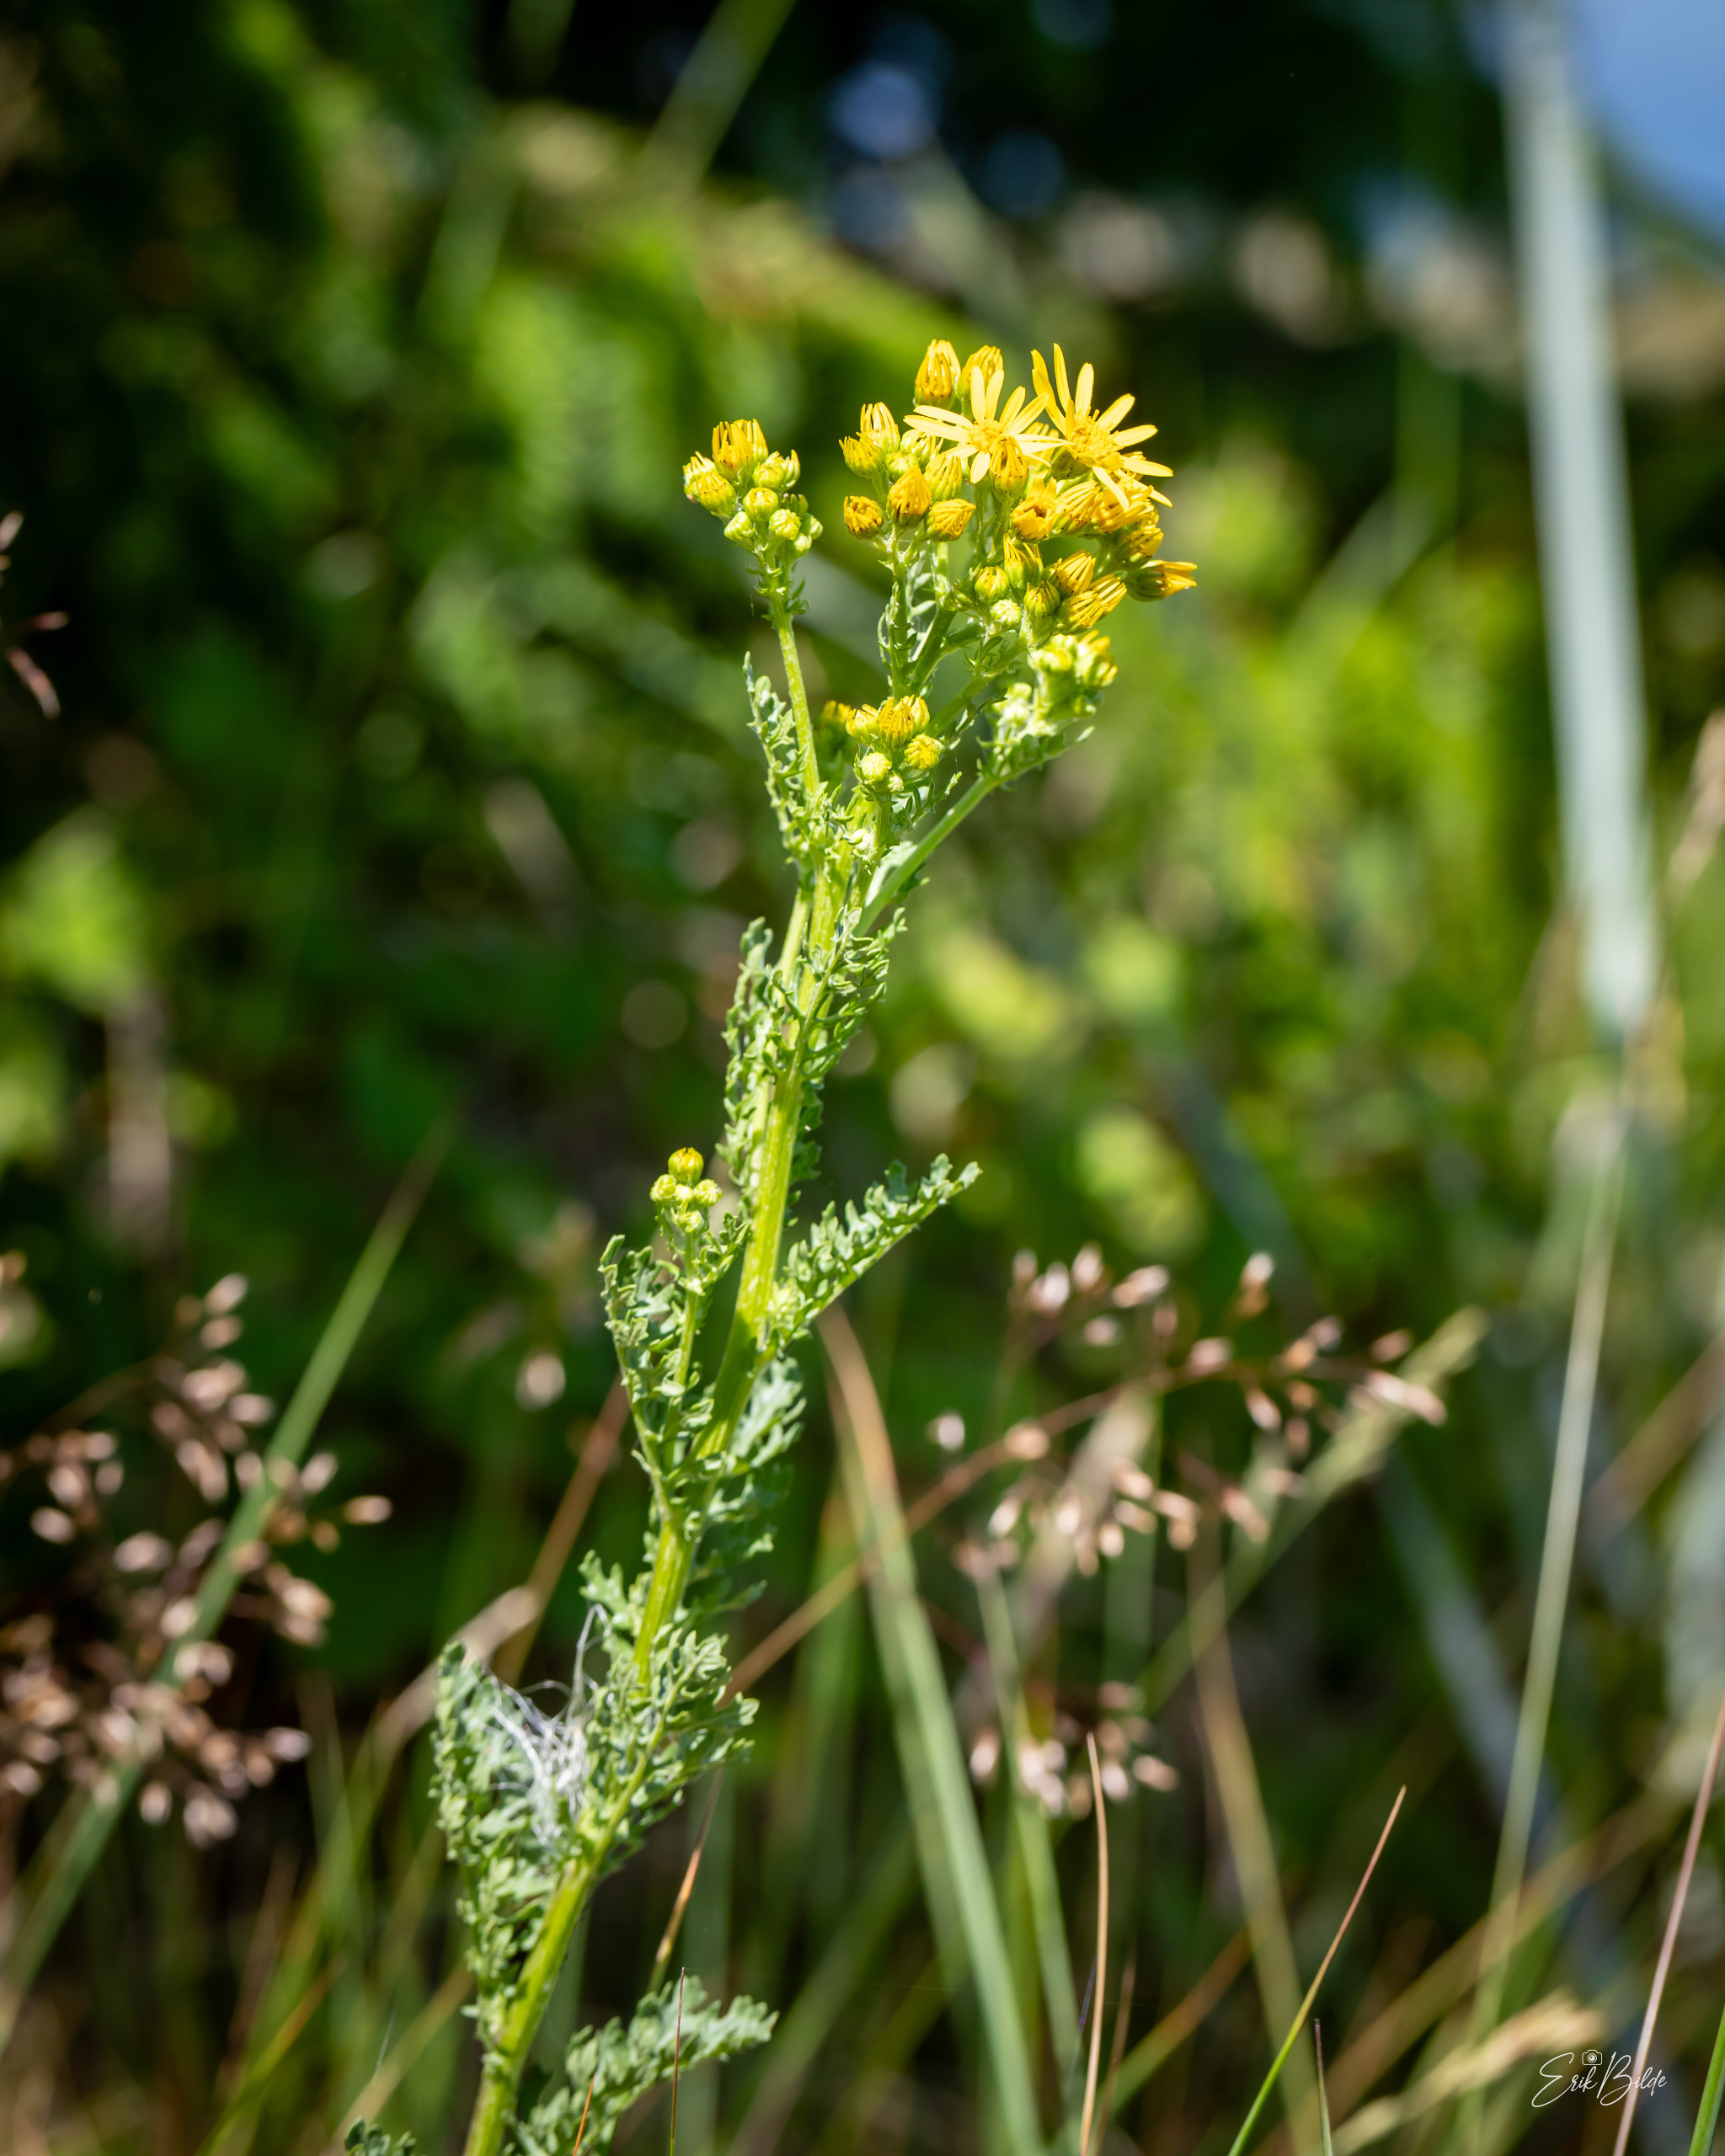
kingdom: Plantae
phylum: Tracheophyta
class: Magnoliopsida
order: Asterales
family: Asteraceae
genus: Jacobaea
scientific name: Jacobaea vulgaris
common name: Eng-brandbæger
